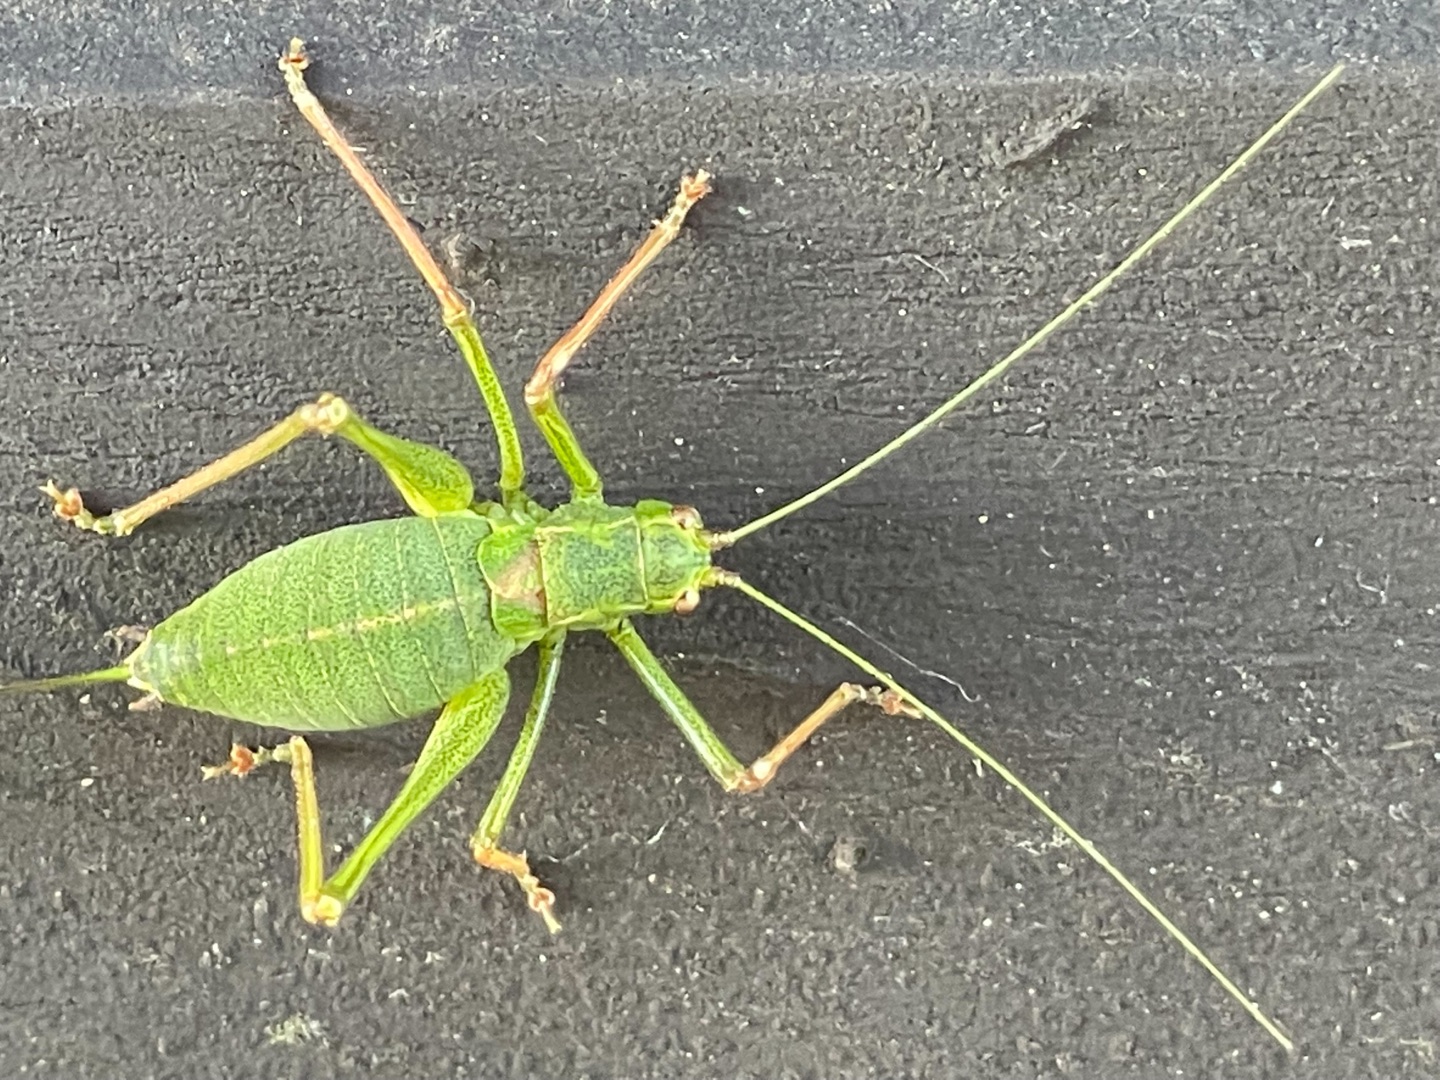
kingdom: Animalia
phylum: Arthropoda
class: Insecta
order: Orthoptera
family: Tettigoniidae
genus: Leptophyes
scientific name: Leptophyes punctatissima
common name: Krumknivgræshoppe
